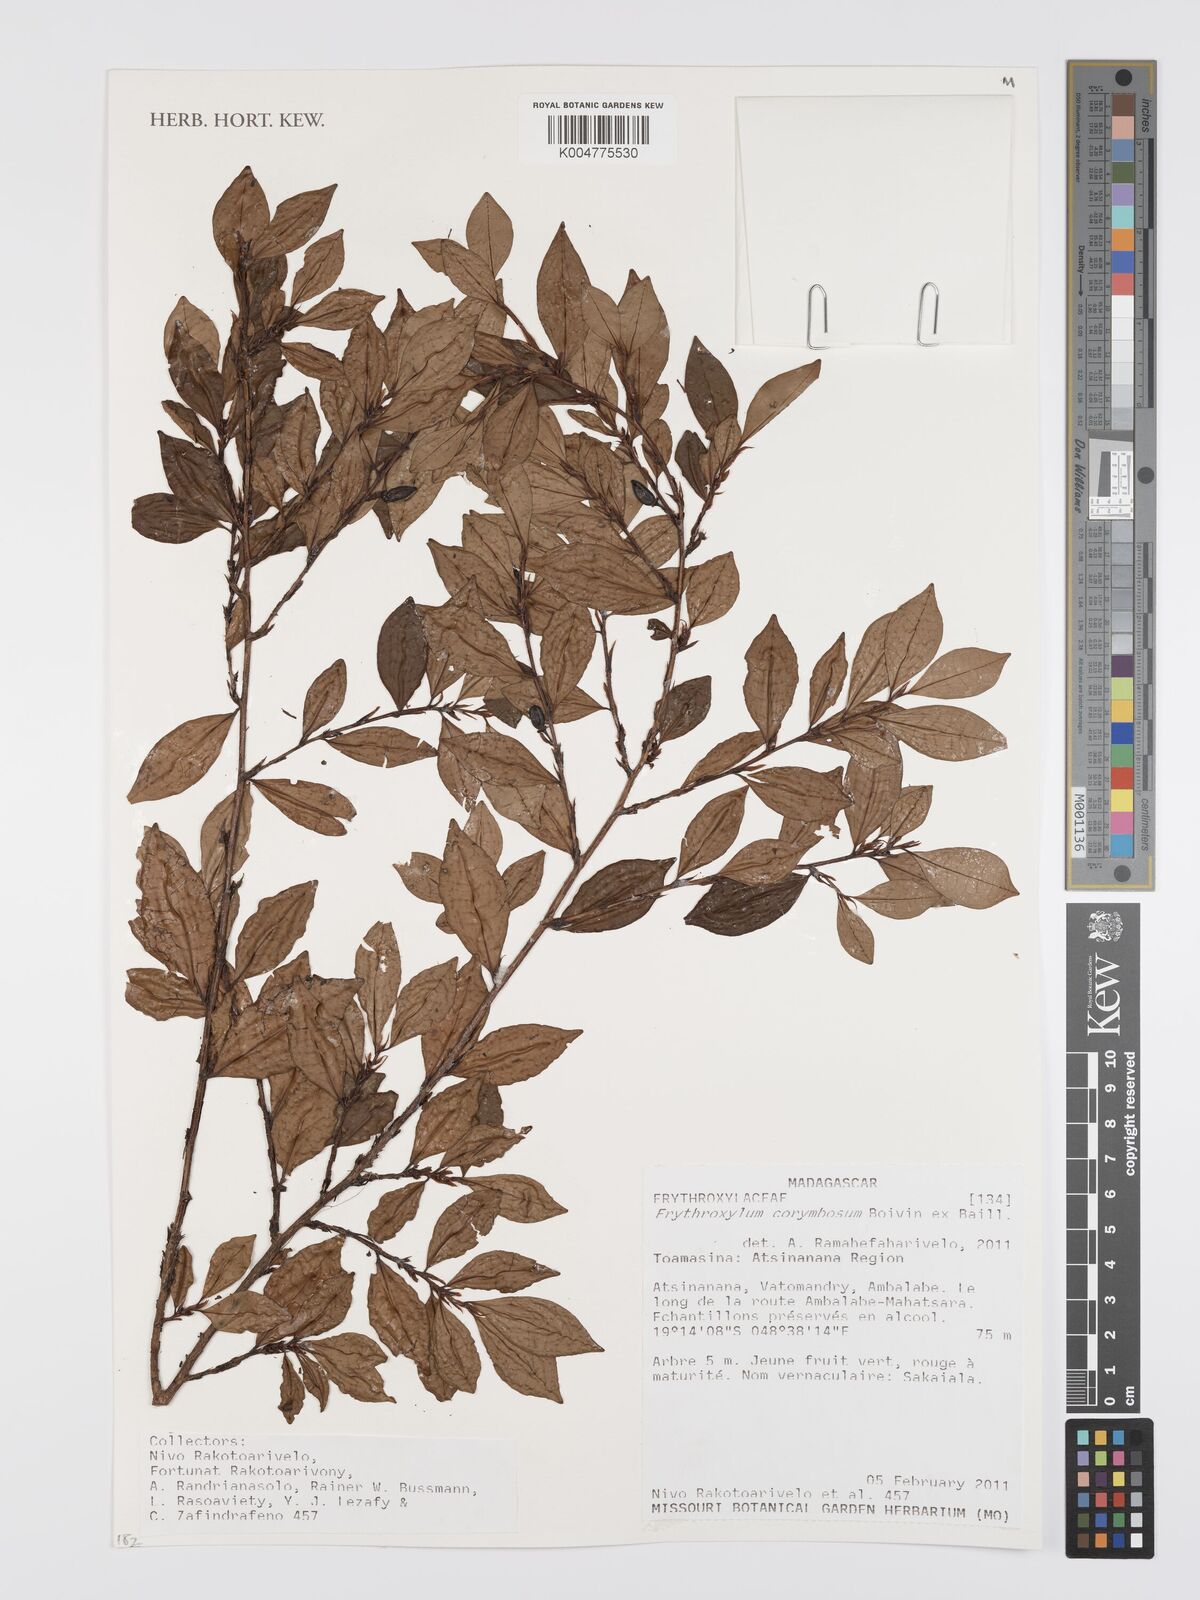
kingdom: Plantae
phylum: Tracheophyta
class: Magnoliopsida
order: Malpighiales
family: Erythroxylaceae
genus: Erythroxylum
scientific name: Erythroxylum corymbosum
